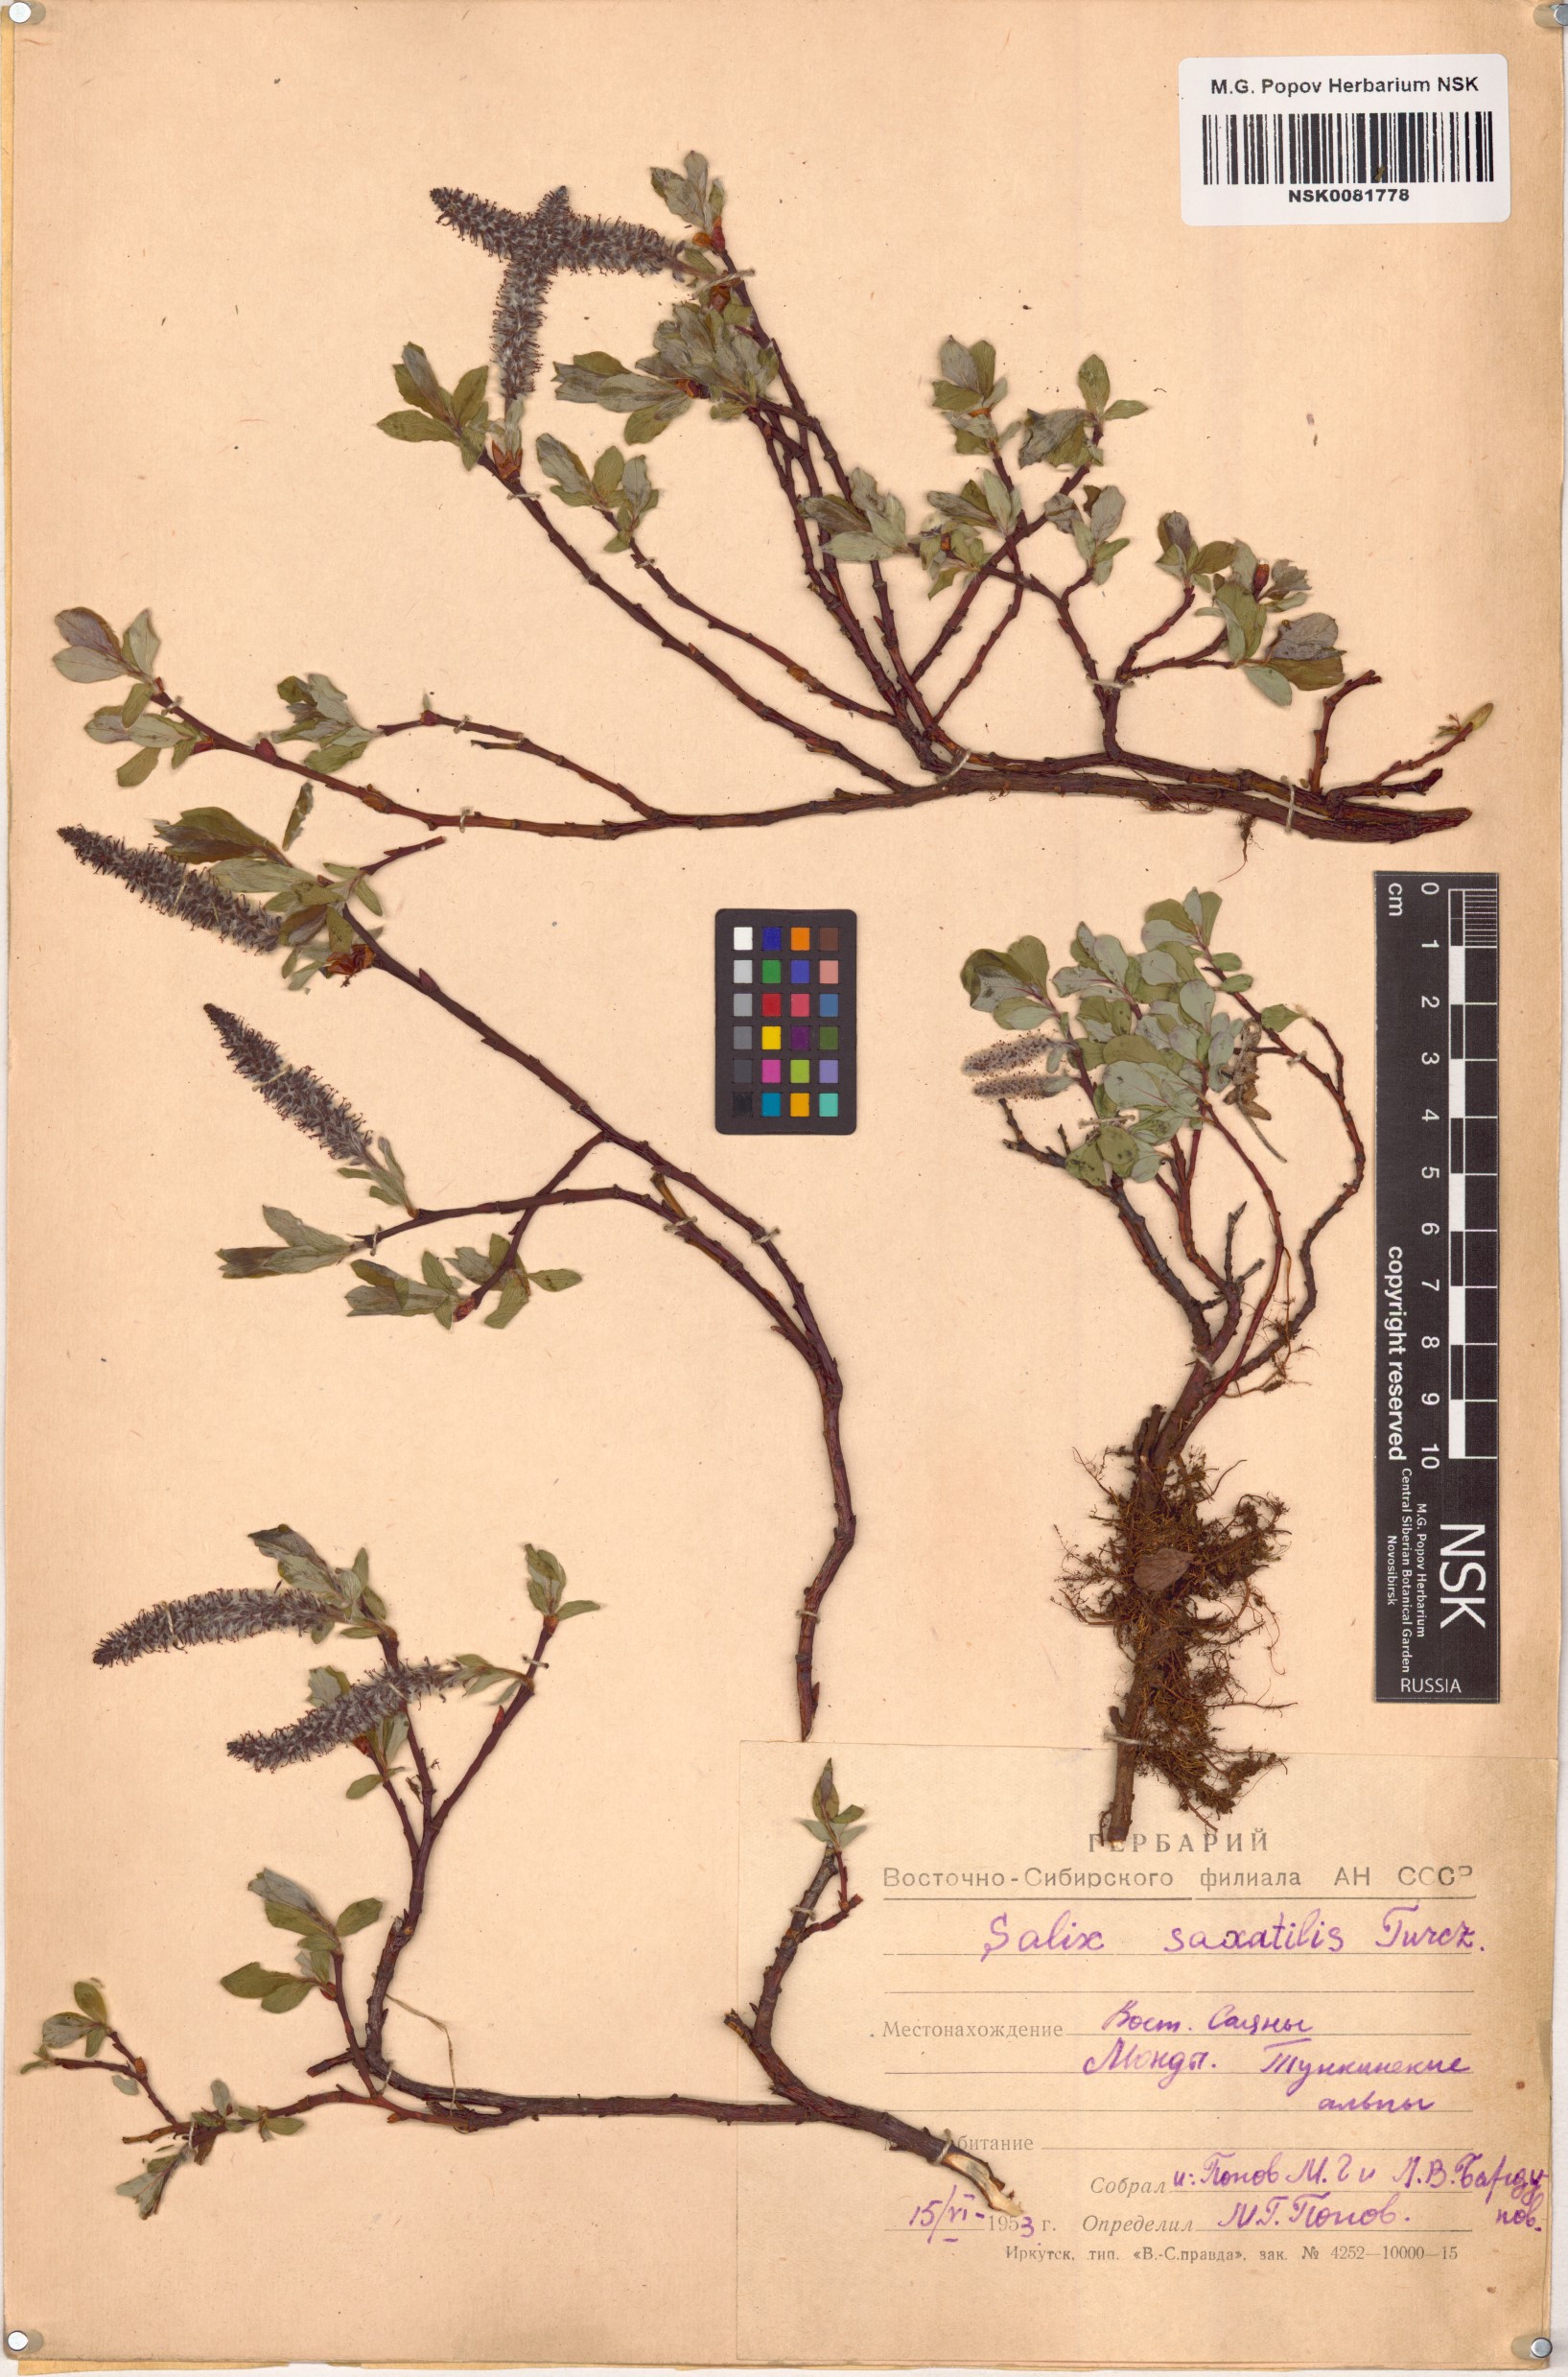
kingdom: Plantae
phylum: Tracheophyta
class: Magnoliopsida
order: Malpighiales
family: Salicaceae
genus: Salix
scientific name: Salix saxatilis
